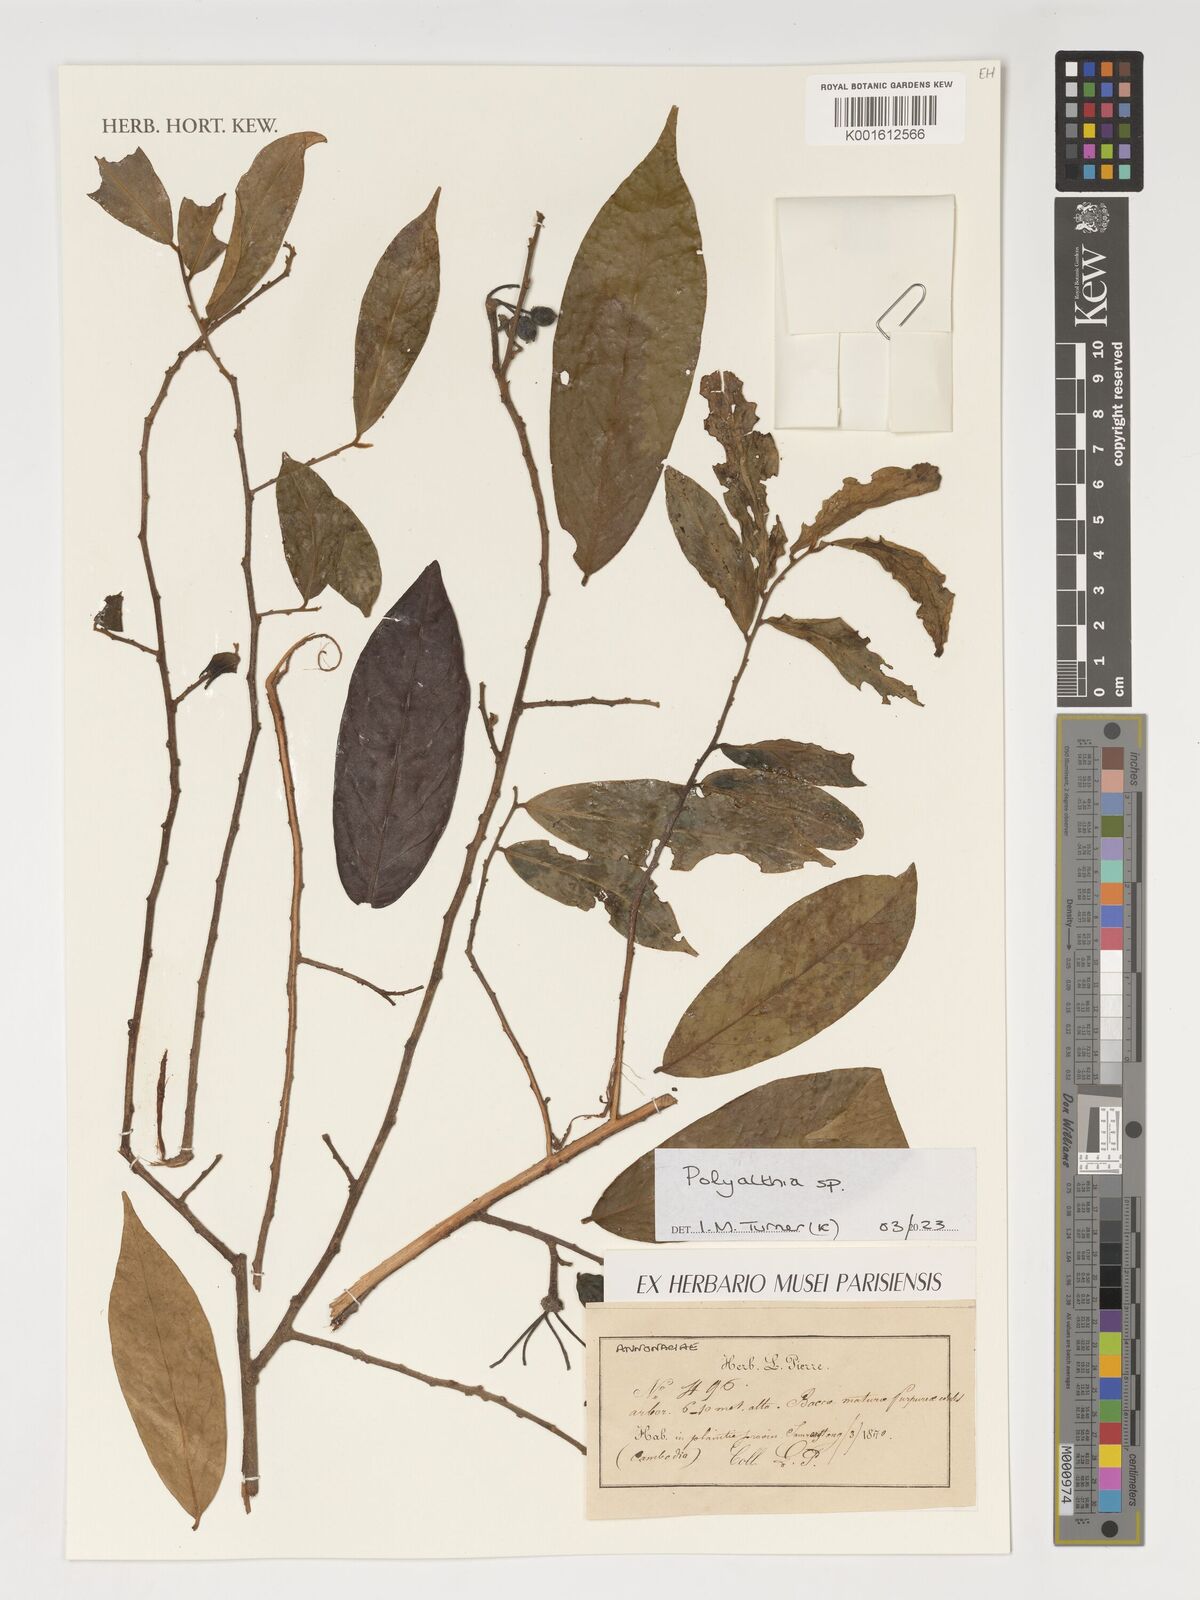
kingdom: Plantae
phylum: Tracheophyta
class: Magnoliopsida
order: Magnoliales
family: Annonaceae
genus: Polyalthia
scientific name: Polyalthia
